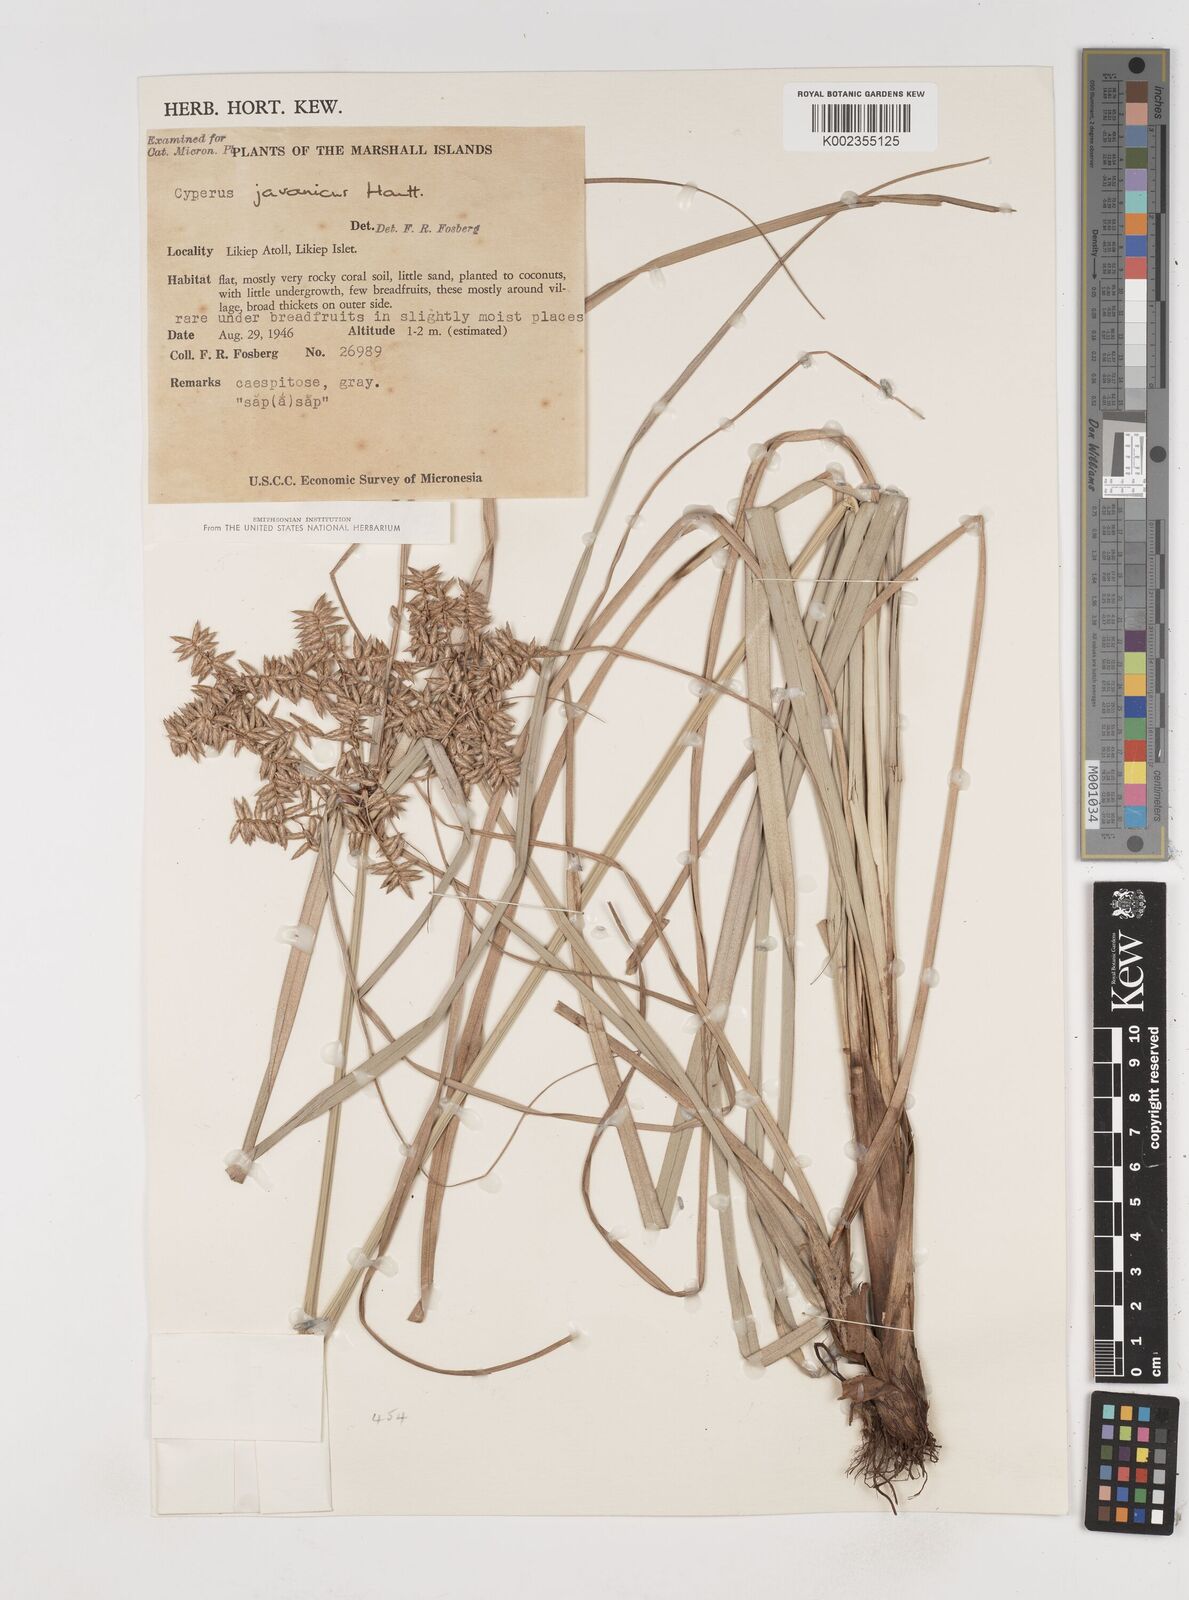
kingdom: Plantae
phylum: Tracheophyta
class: Liliopsida
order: Poales
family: Cyperaceae
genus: Cyperus
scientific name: Cyperus javanicus
